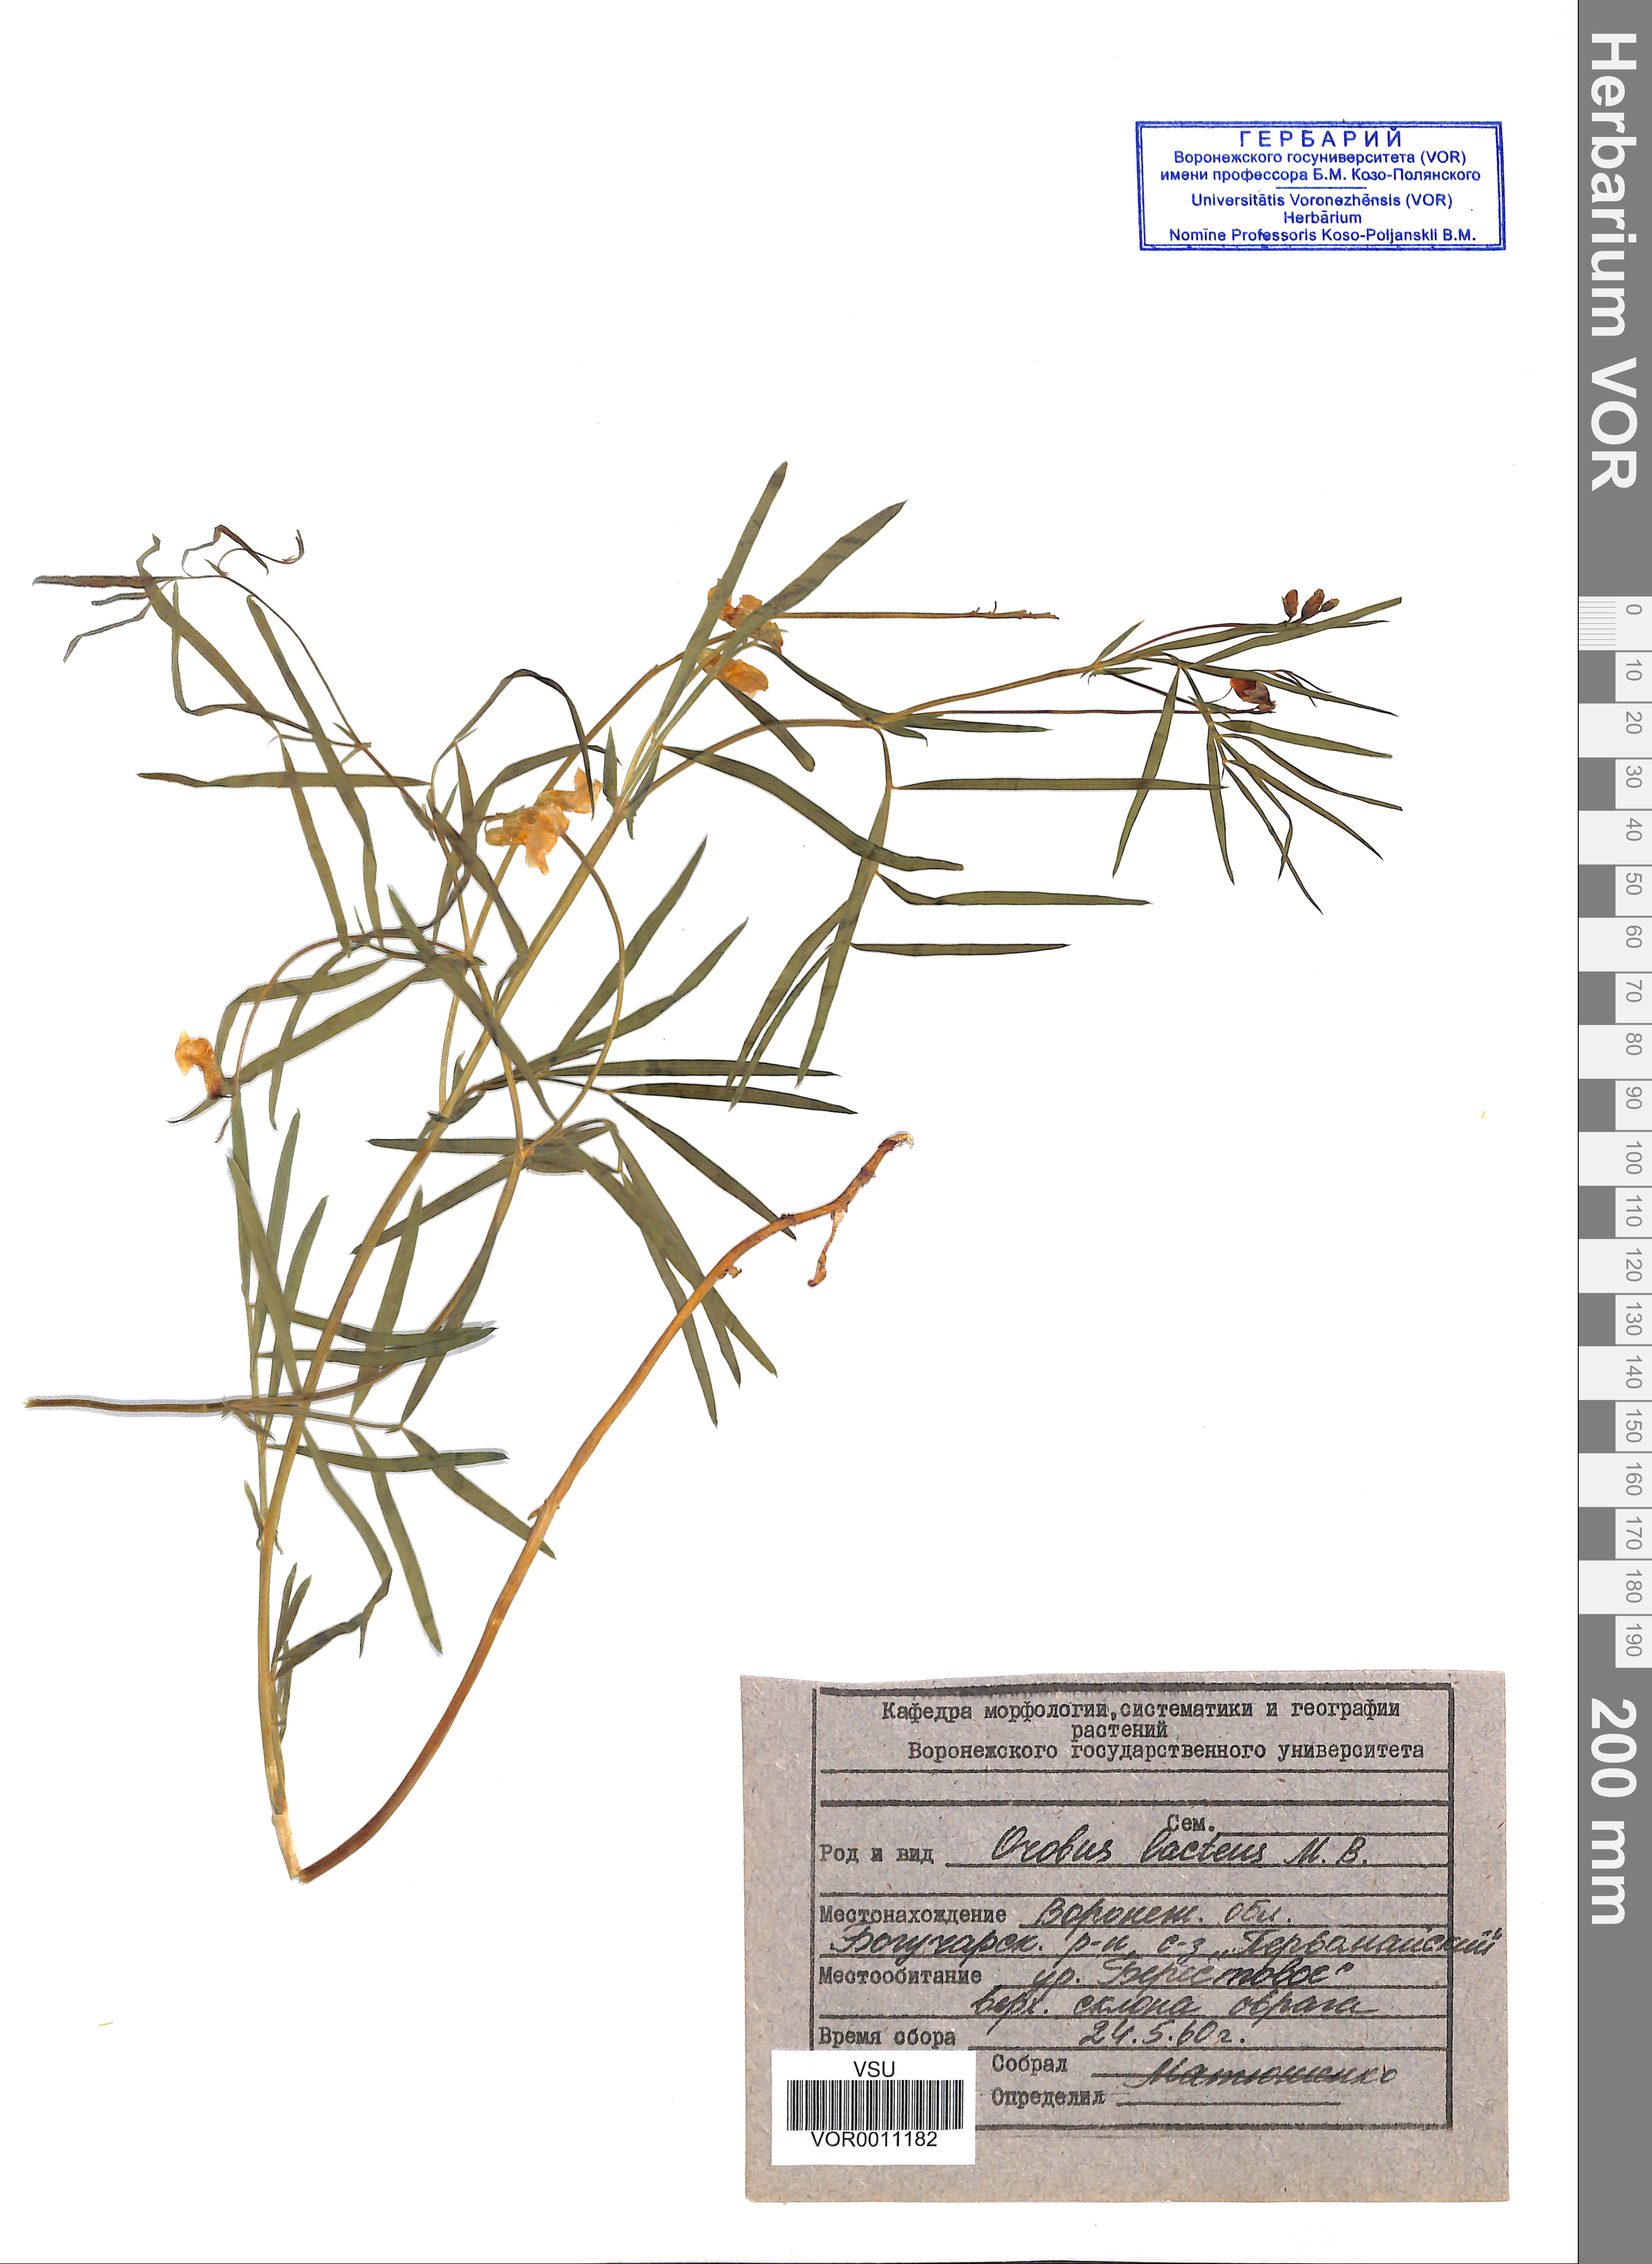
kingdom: Plantae
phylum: Tracheophyta
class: Magnoliopsida
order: Fabales
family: Fabaceae
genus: Lathyrus
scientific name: Lathyrus pannonicus
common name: Pea
